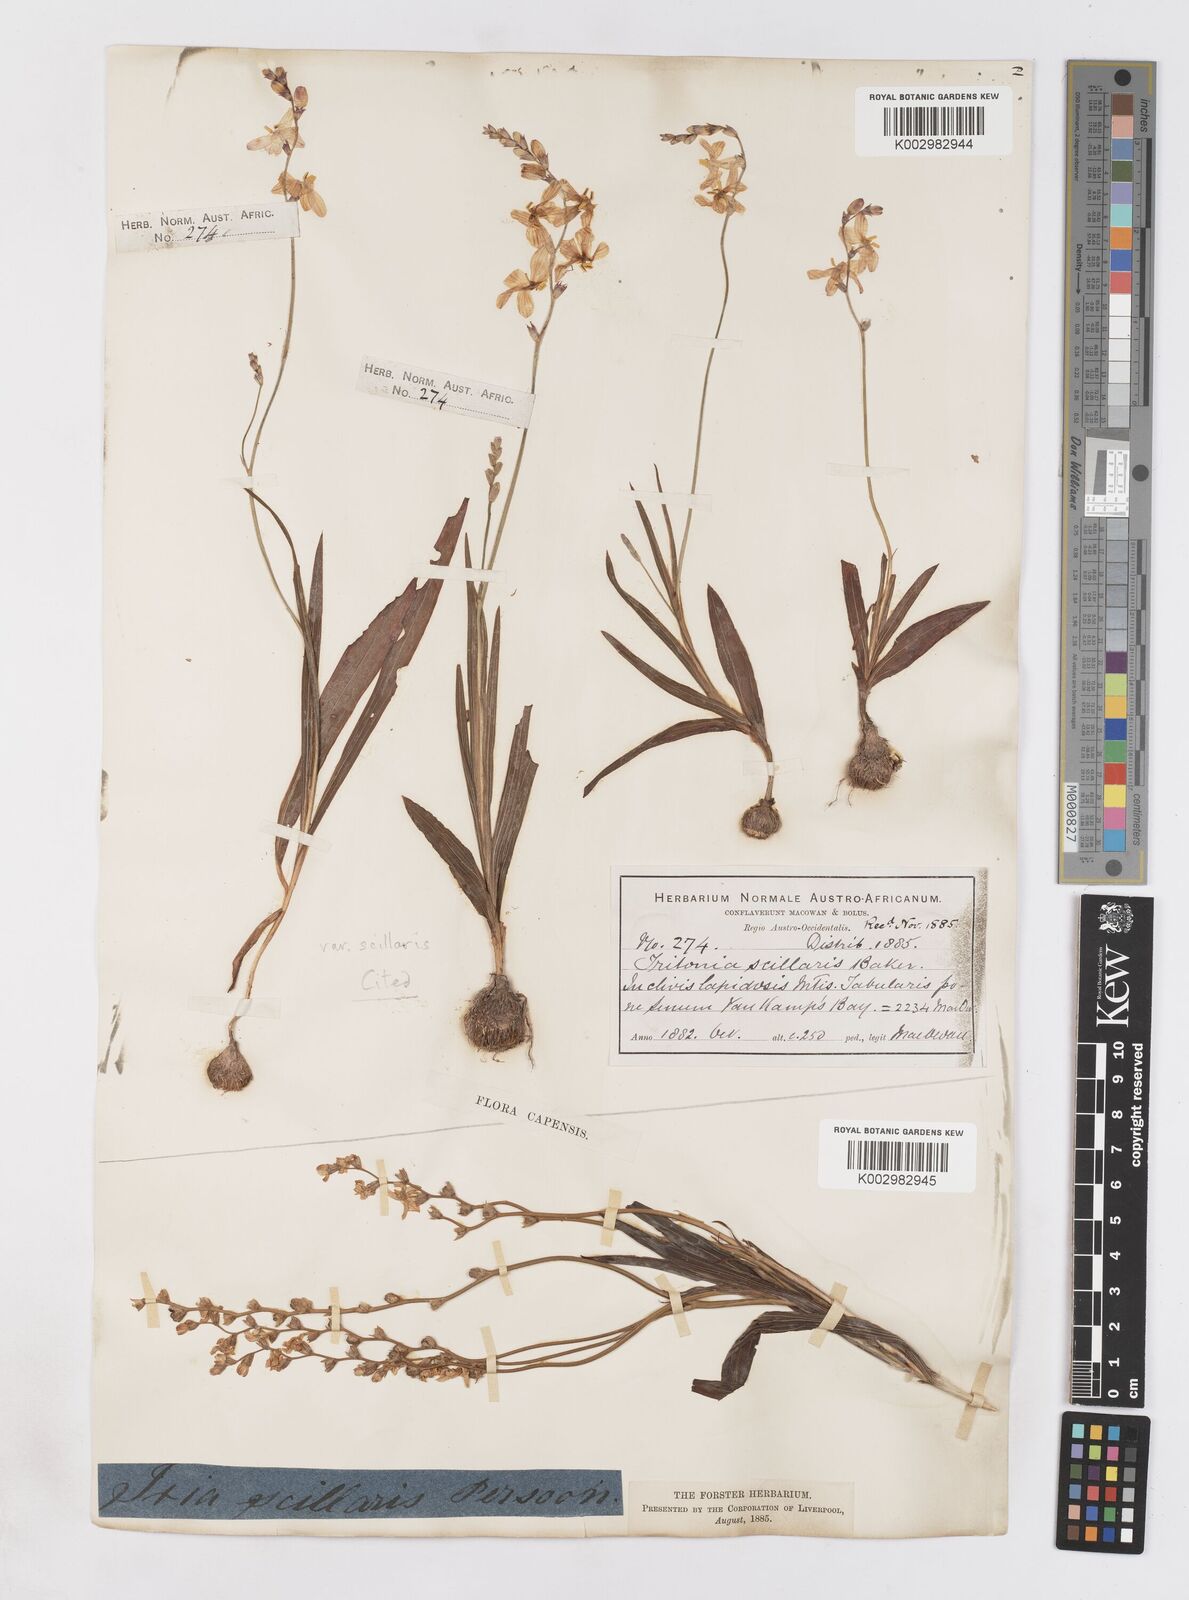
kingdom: Plantae
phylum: Tracheophyta
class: Liliopsida
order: Asparagales
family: Iridaceae
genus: Ixia
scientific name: Ixia scillaris
